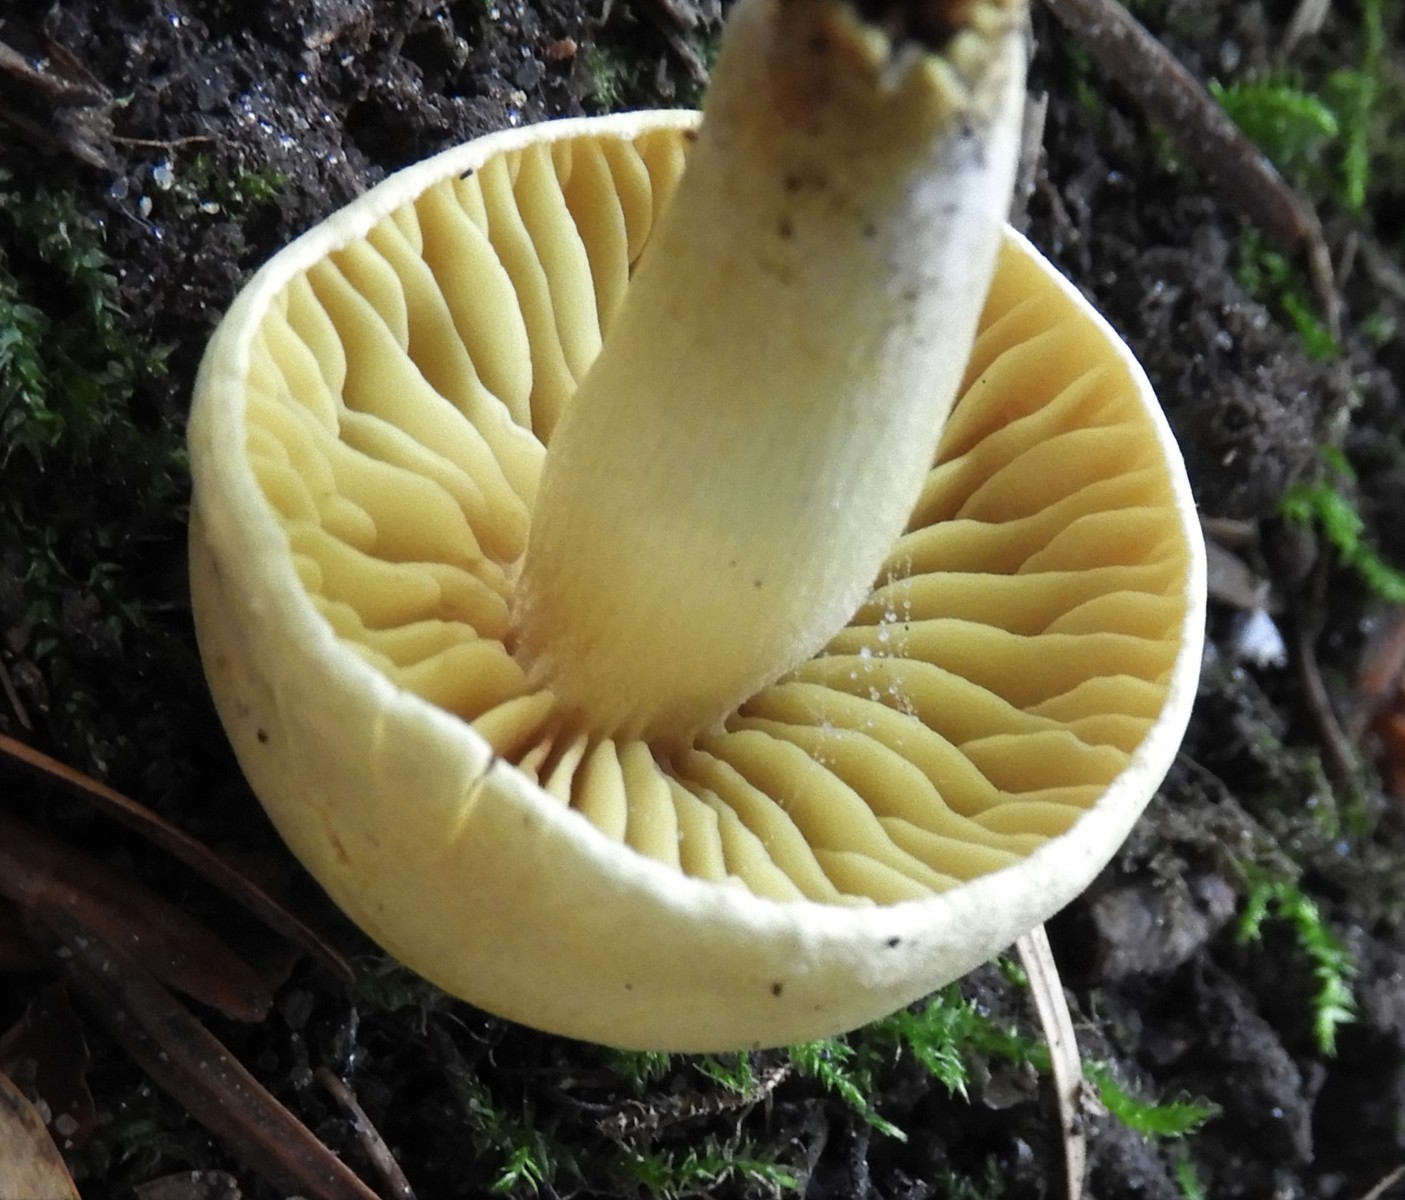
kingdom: Fungi
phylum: Basidiomycota
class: Agaricomycetes
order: Agaricales
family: Tricholomataceae
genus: Tricholoma
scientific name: Tricholoma sulphureum
